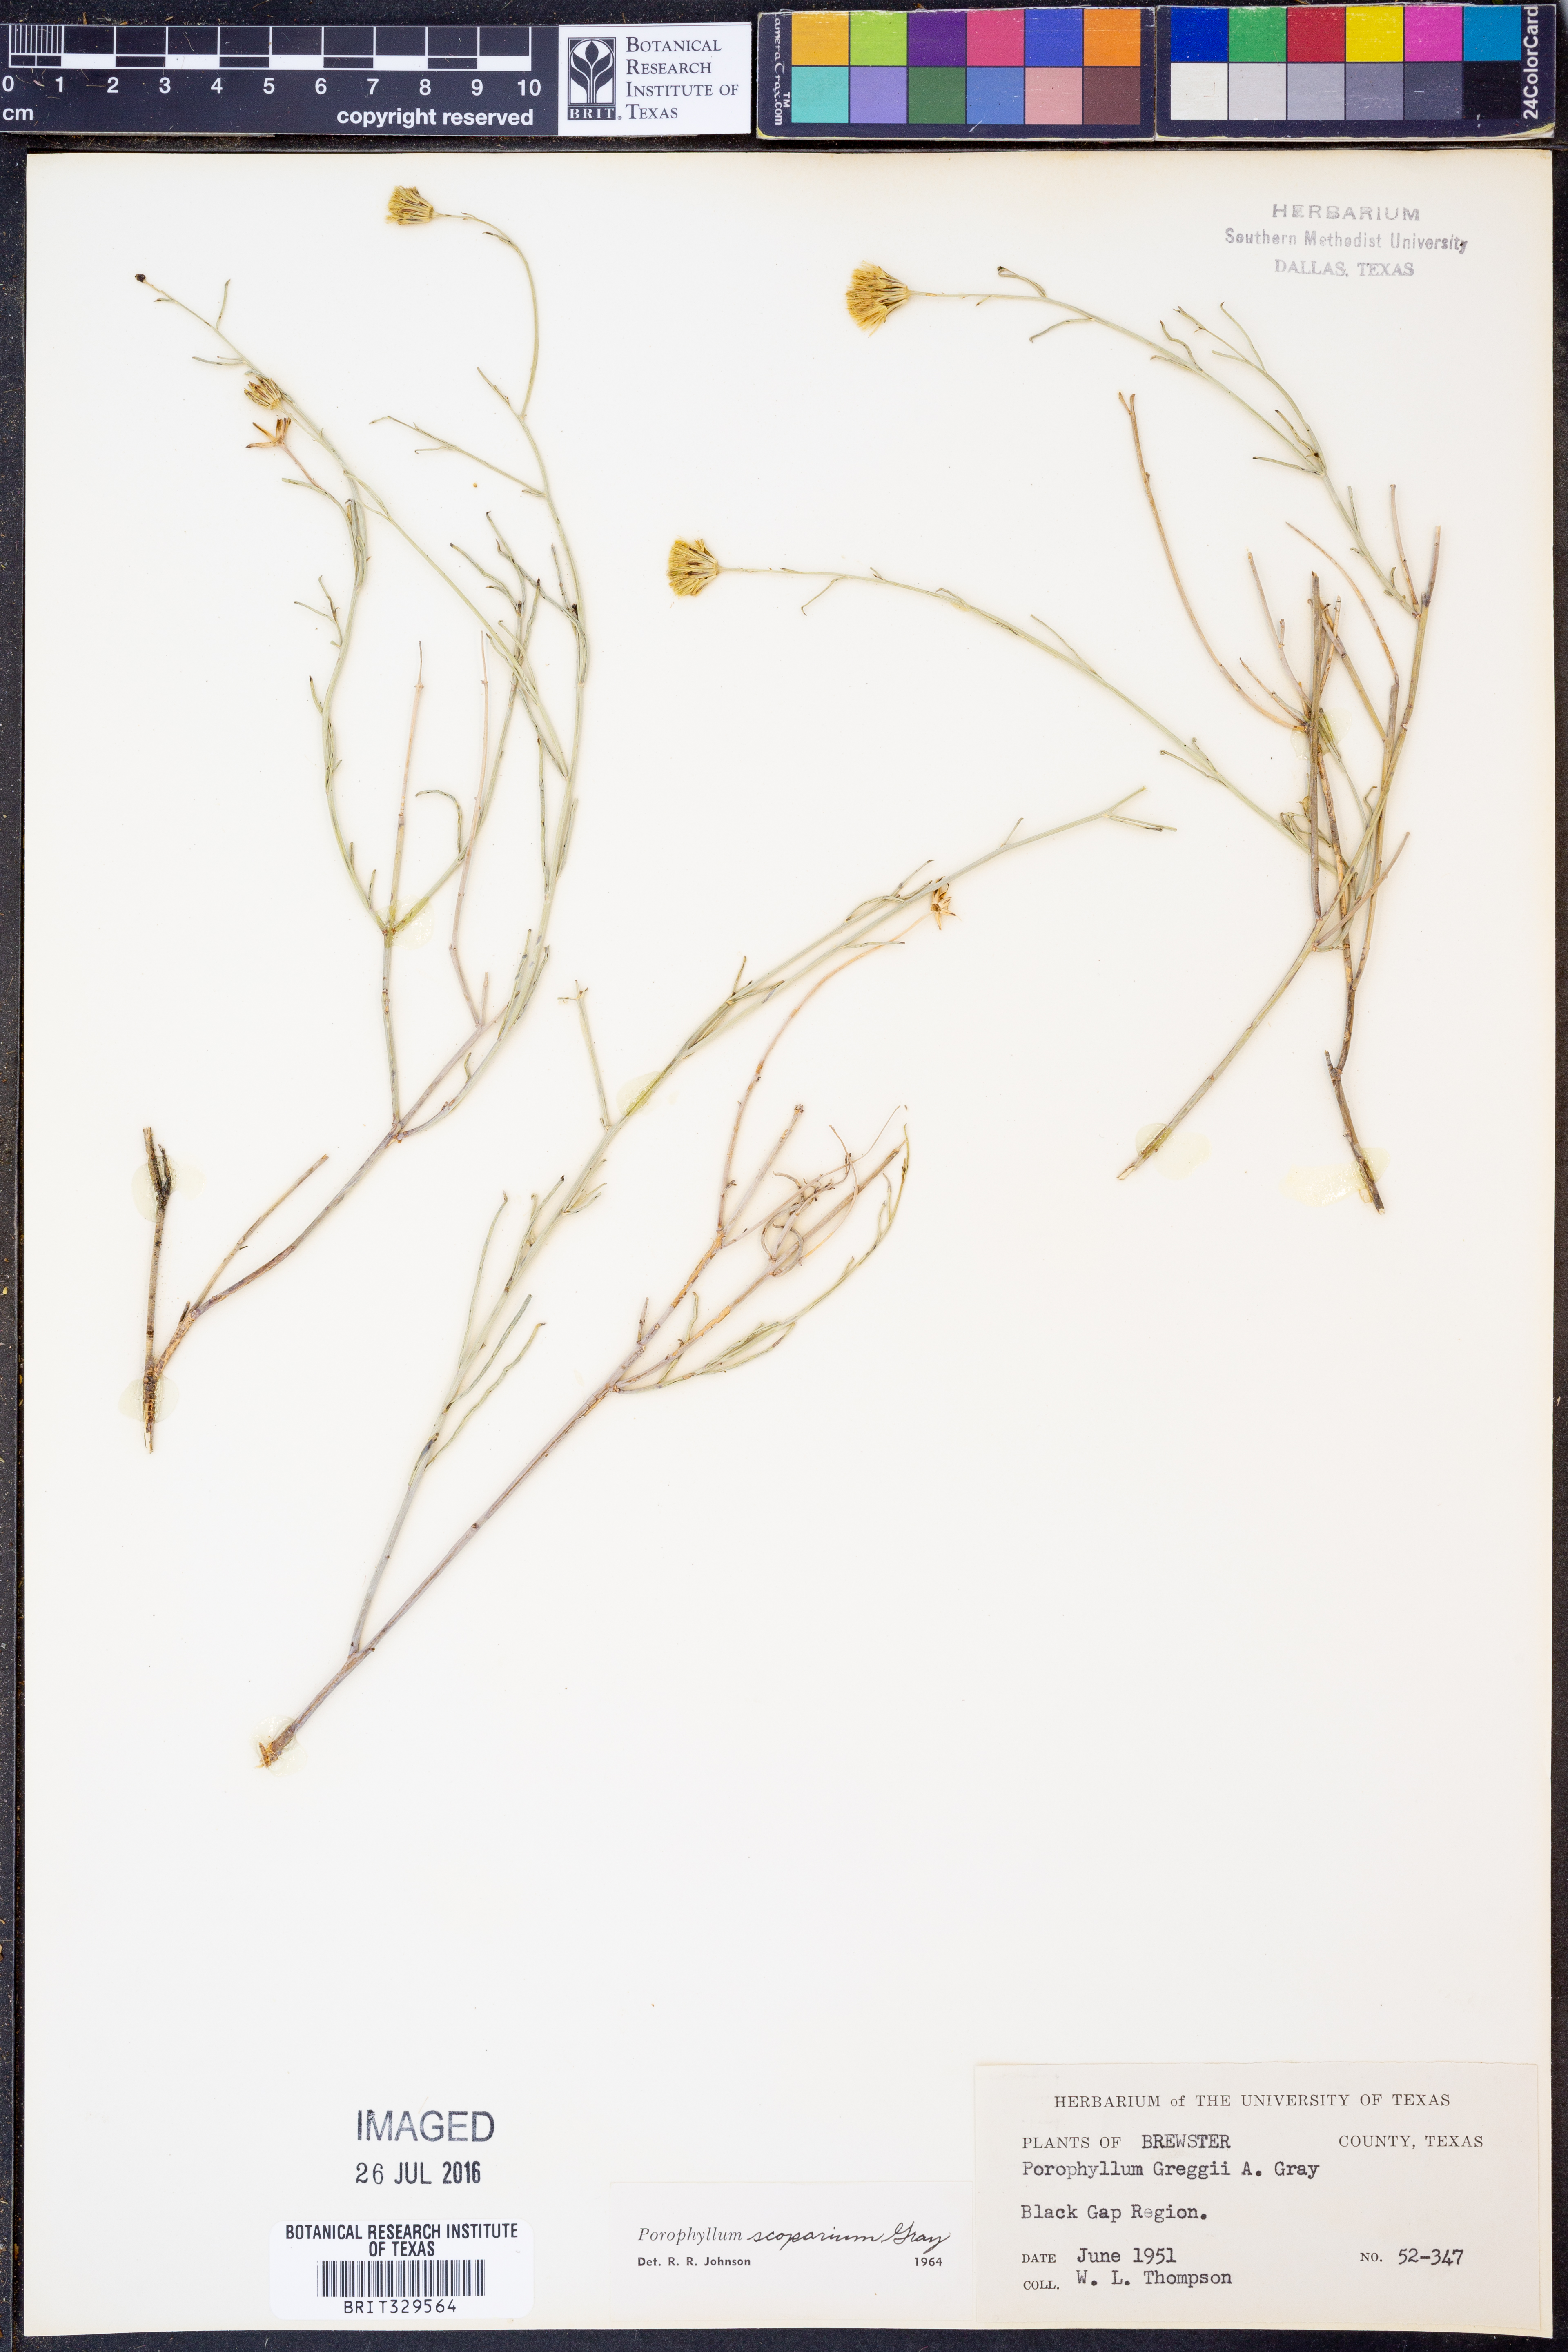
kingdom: Plantae
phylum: Tracheophyta
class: Magnoliopsida
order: Asterales
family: Asteraceae
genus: Porophyllum
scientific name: Porophyllum scoparium
